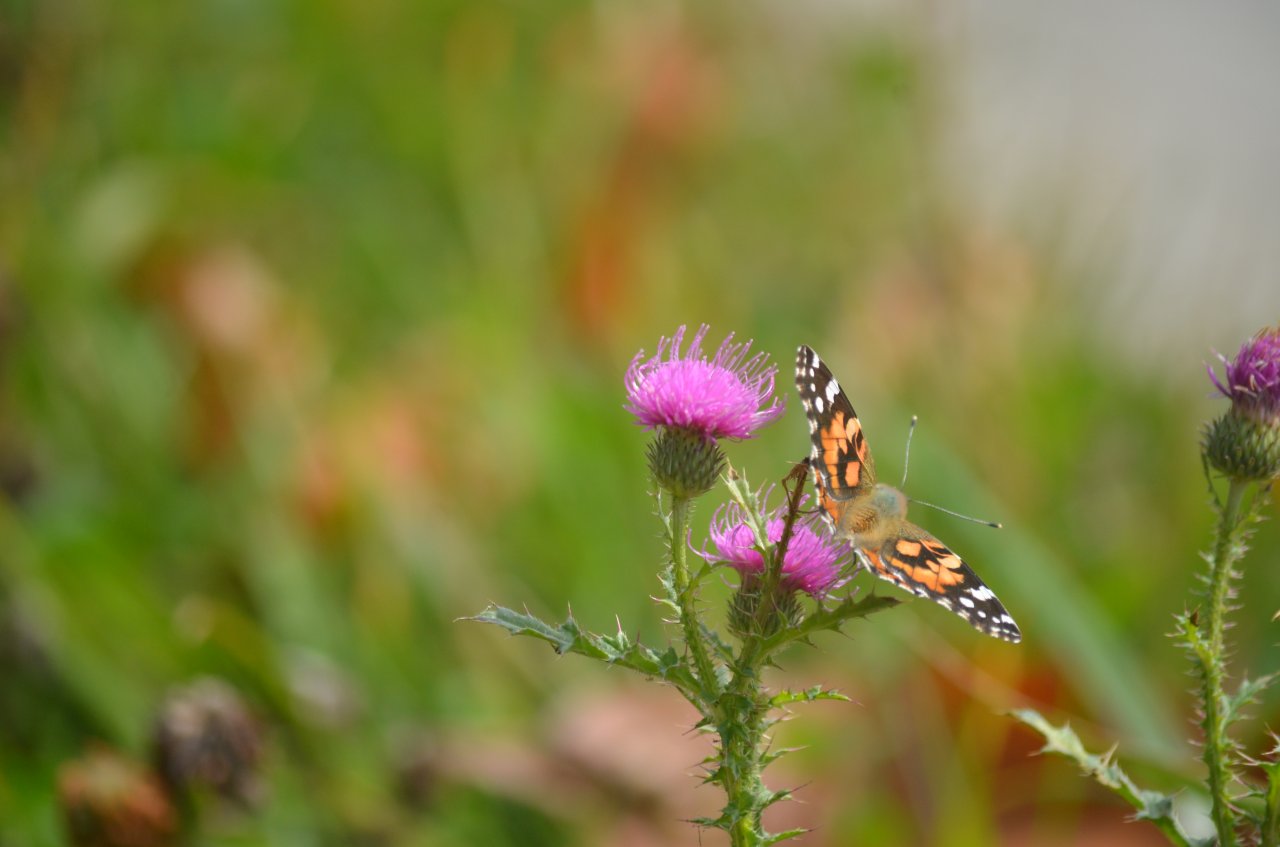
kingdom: Animalia
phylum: Arthropoda
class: Insecta
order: Lepidoptera
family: Nymphalidae
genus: Vanessa
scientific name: Vanessa cardui
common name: Painted Lady
